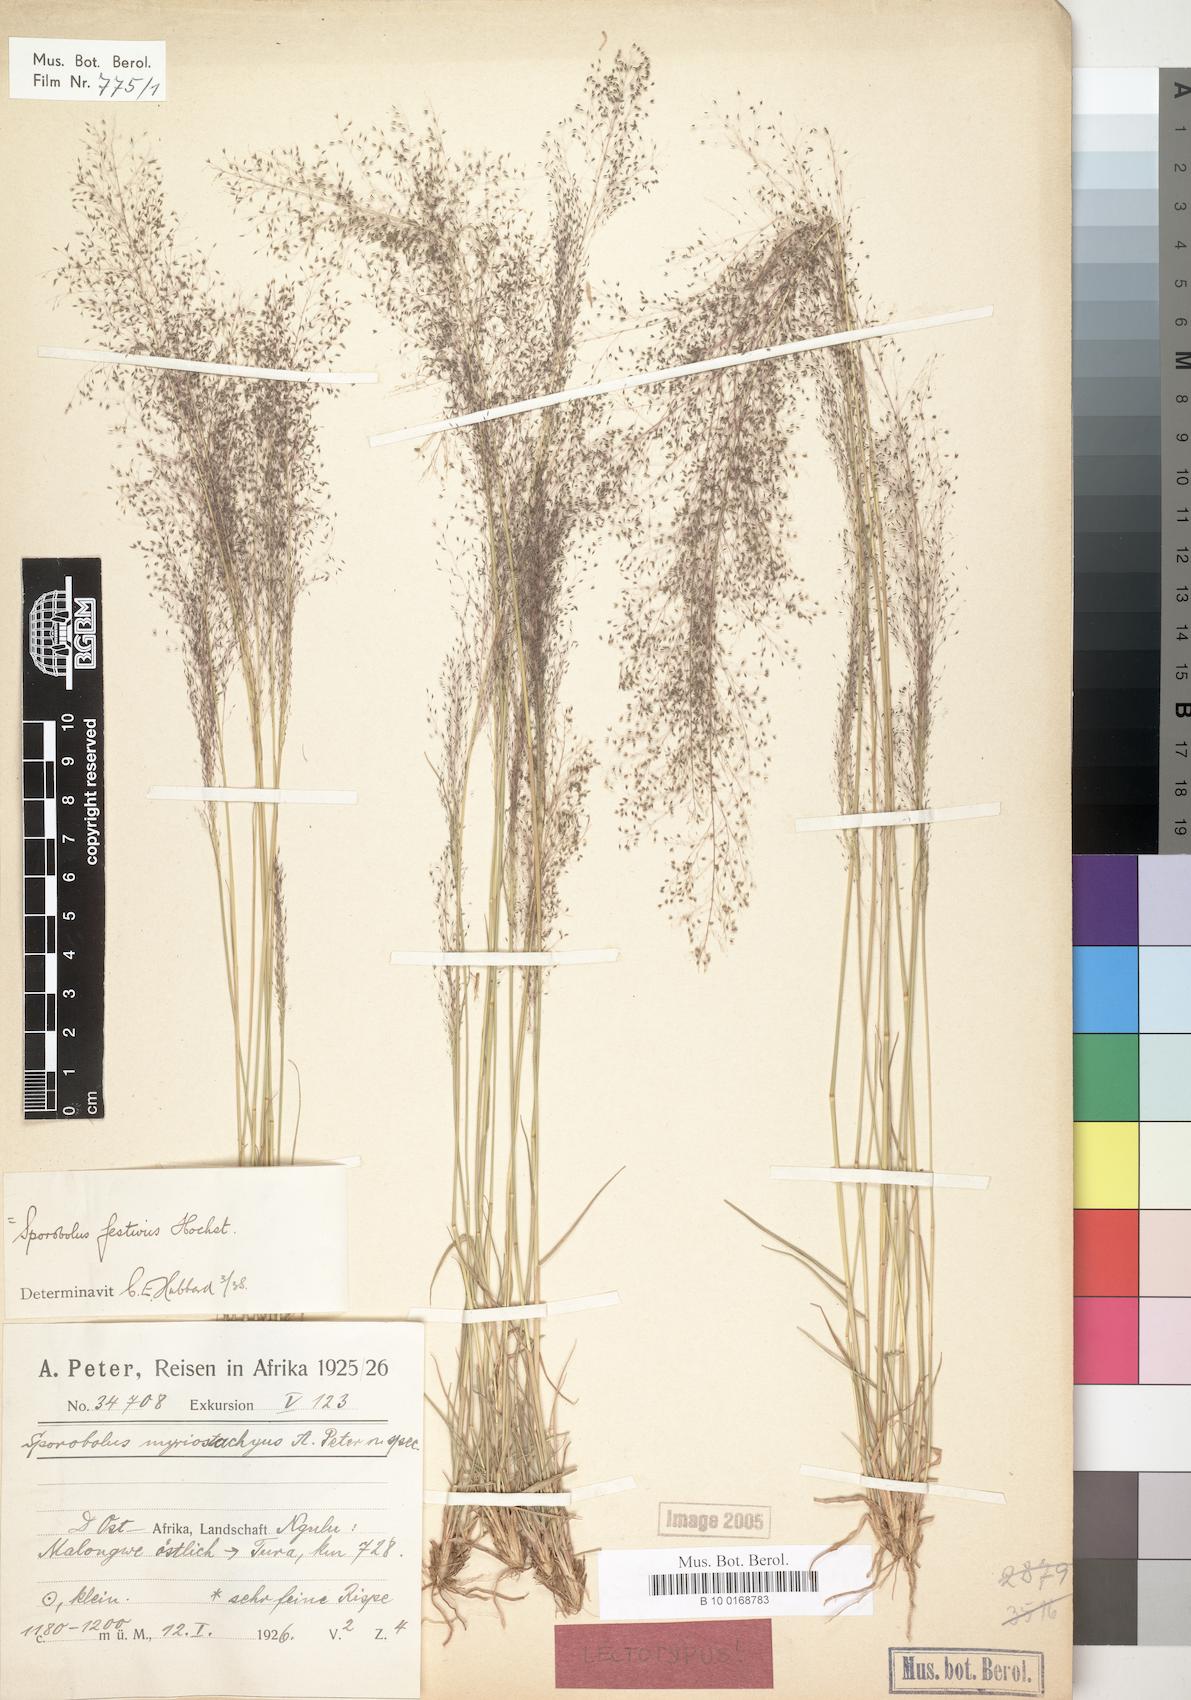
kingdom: Plantae
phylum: Tracheophyta
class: Liliopsida
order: Poales
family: Poaceae
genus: Sporobolus
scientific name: Sporobolus festivus
